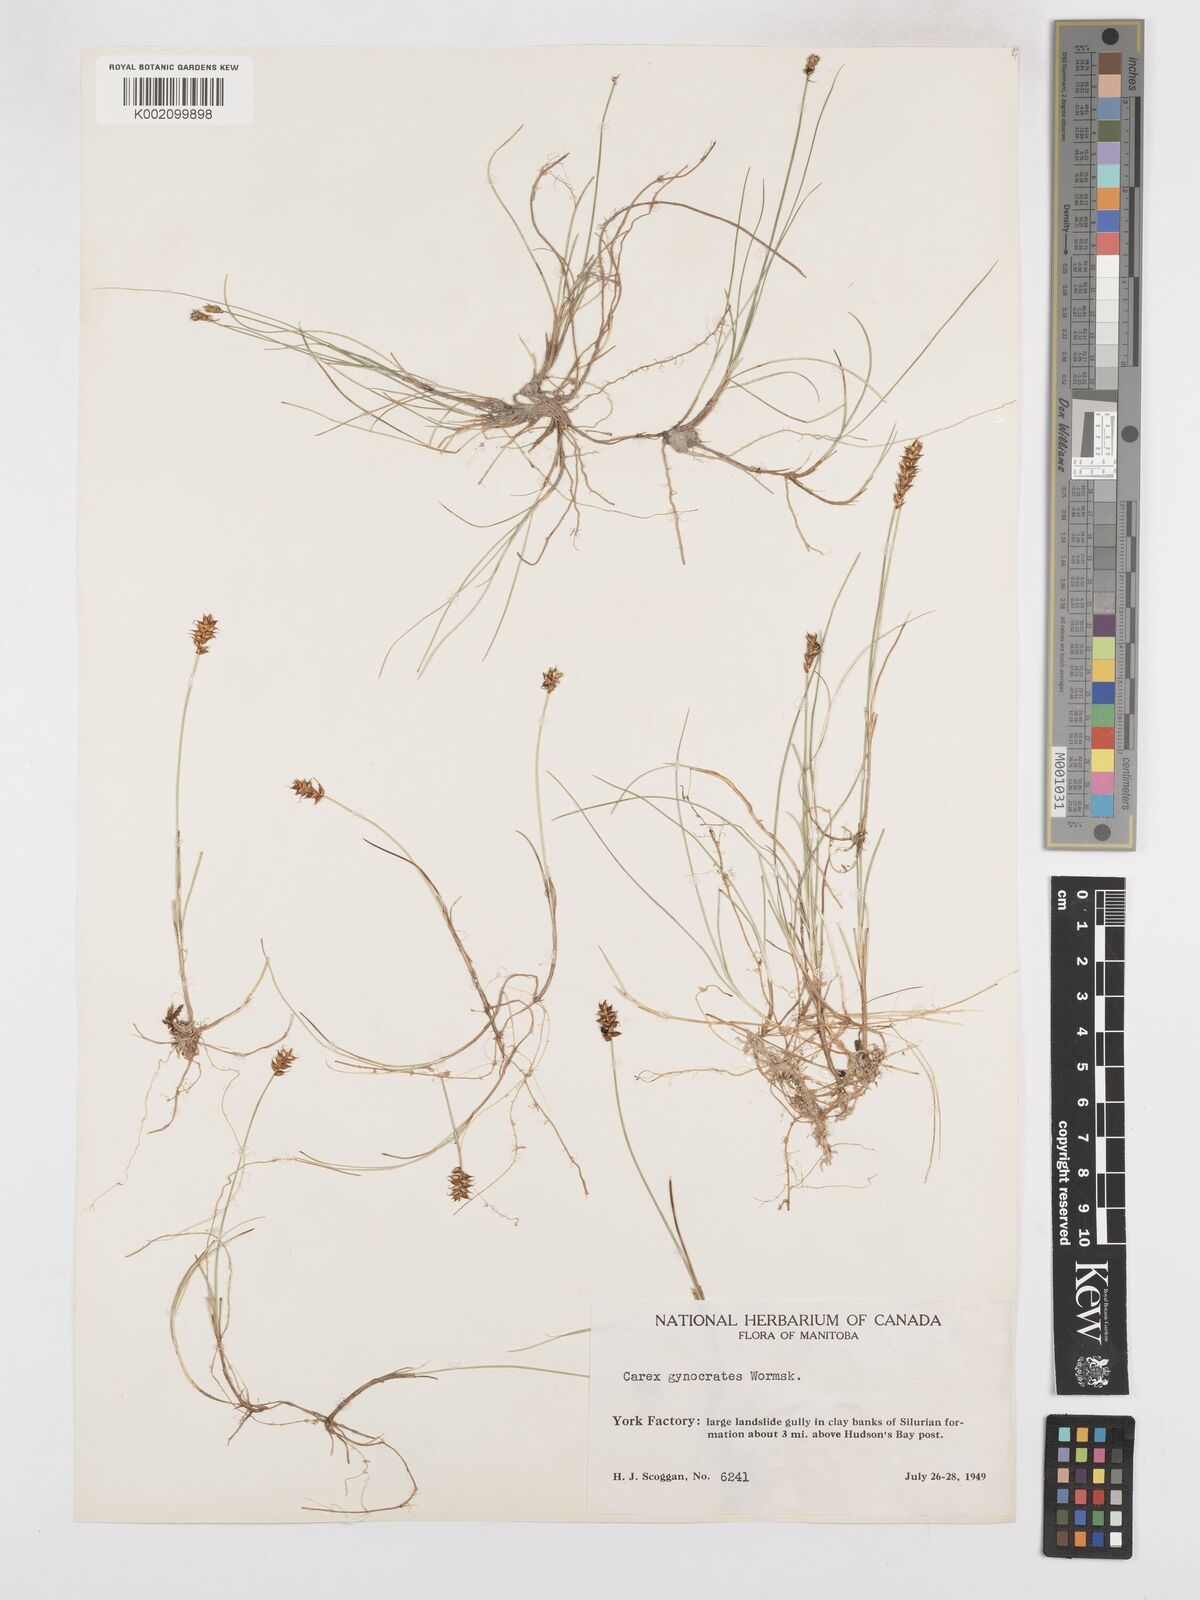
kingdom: Plantae
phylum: Tracheophyta
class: Liliopsida
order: Poales
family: Cyperaceae
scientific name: Cyperaceae
